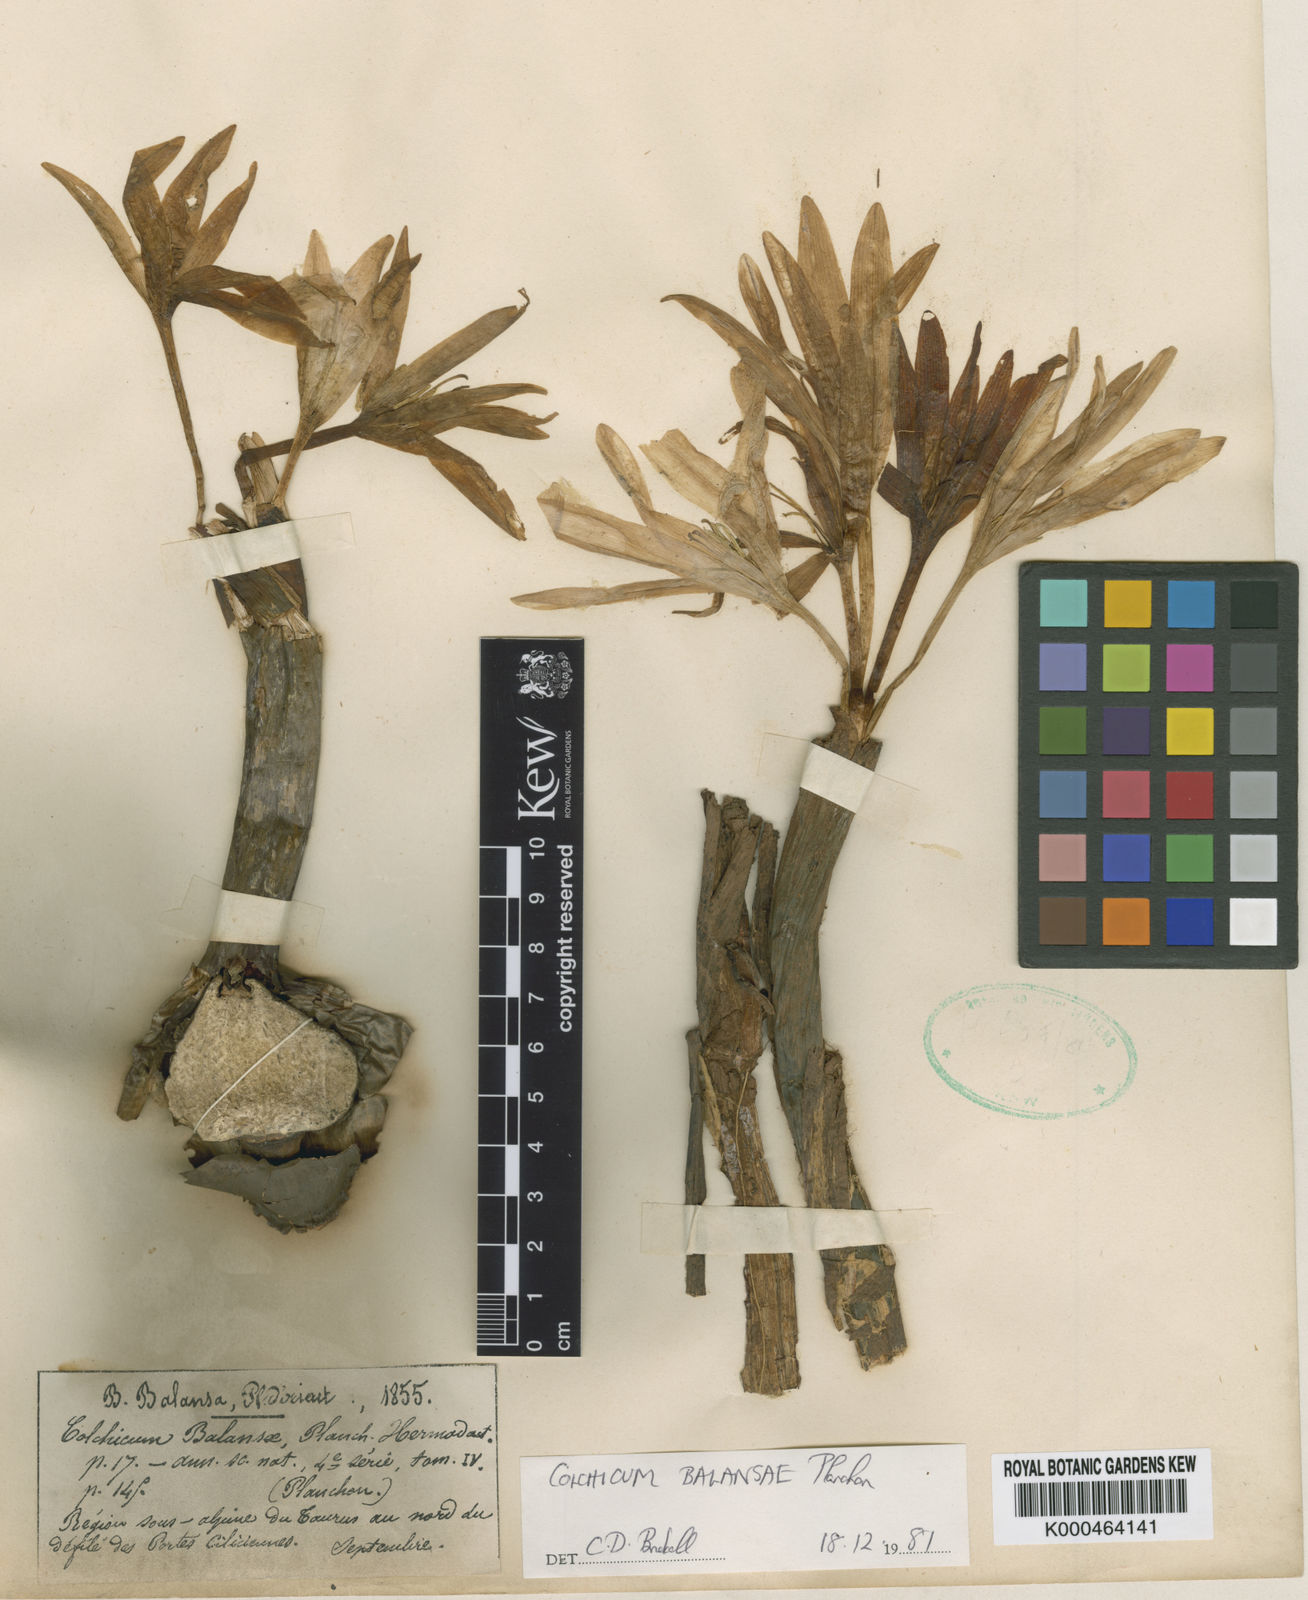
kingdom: Plantae
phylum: Tracheophyta
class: Liliopsida
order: Liliales
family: Colchicaceae
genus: Colchicum
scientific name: Colchicum balansae
